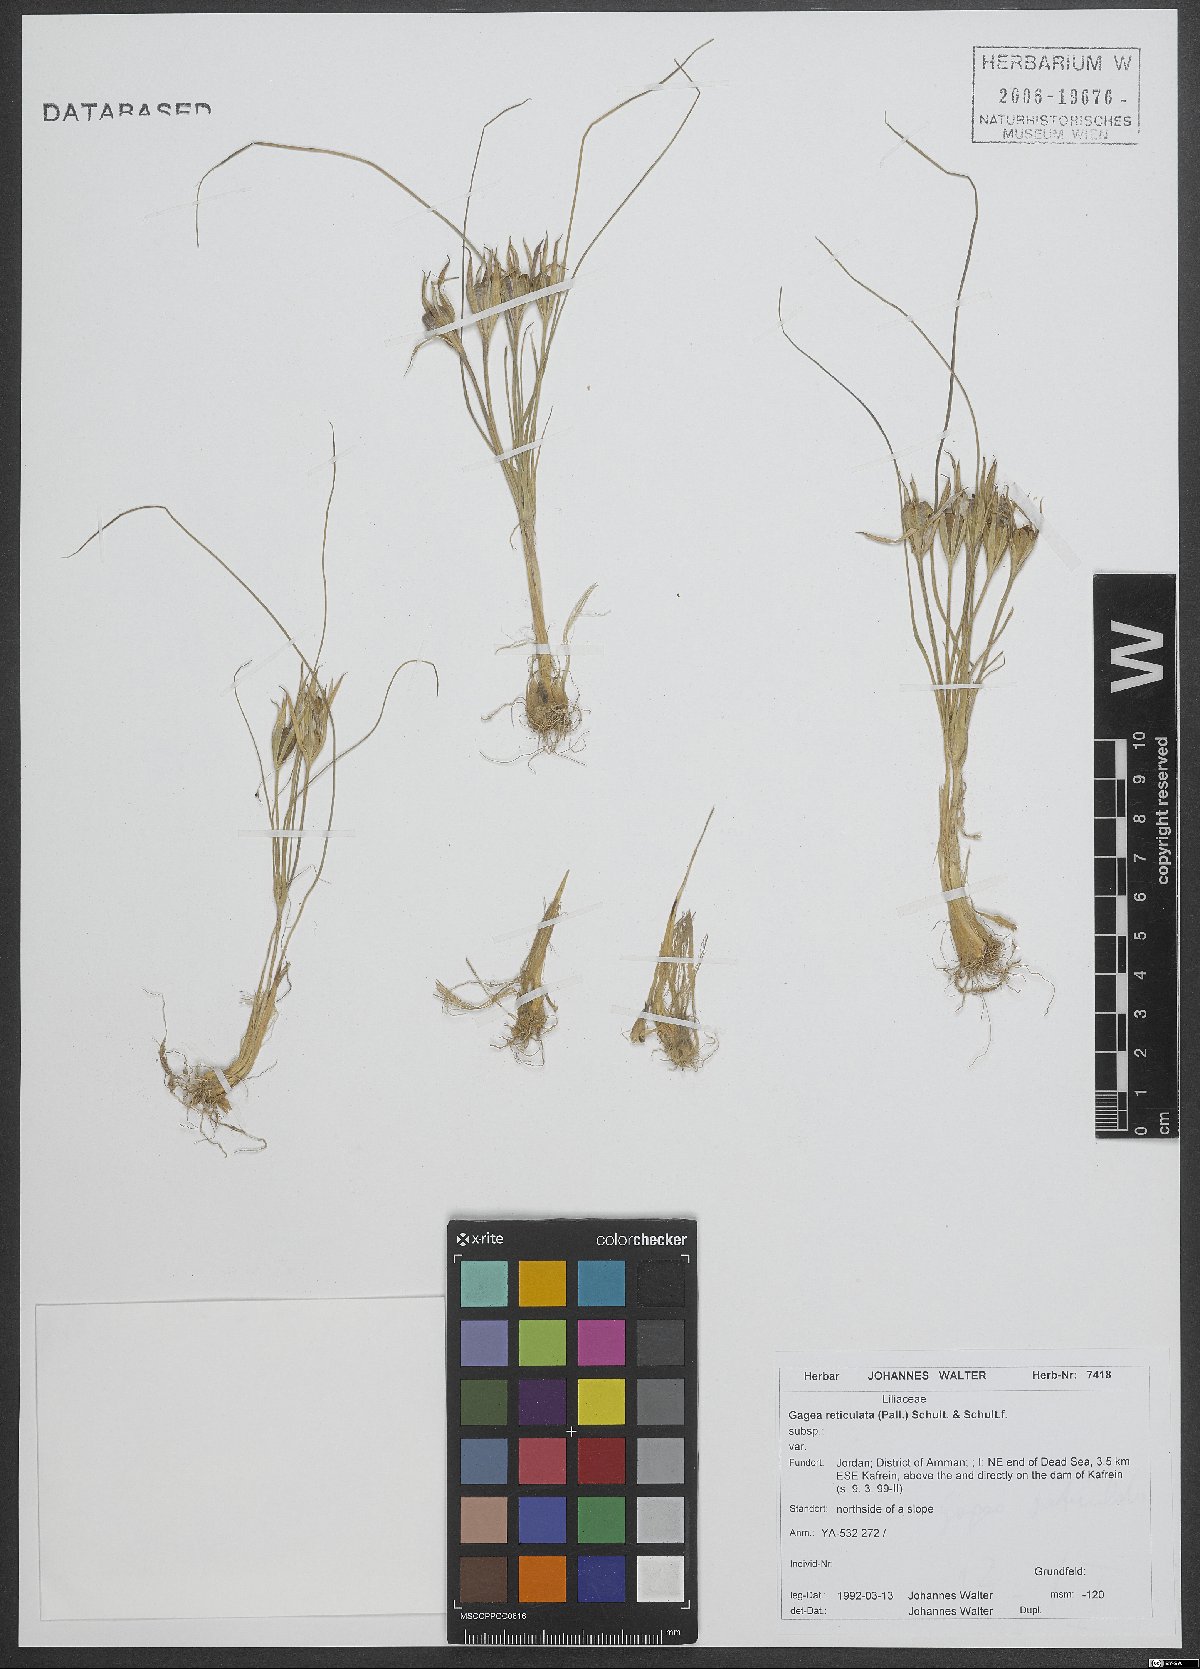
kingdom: Plantae
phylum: Tracheophyta
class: Liliopsida
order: Liliales
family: Liliaceae
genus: Gagea
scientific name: Gagea reticulata
